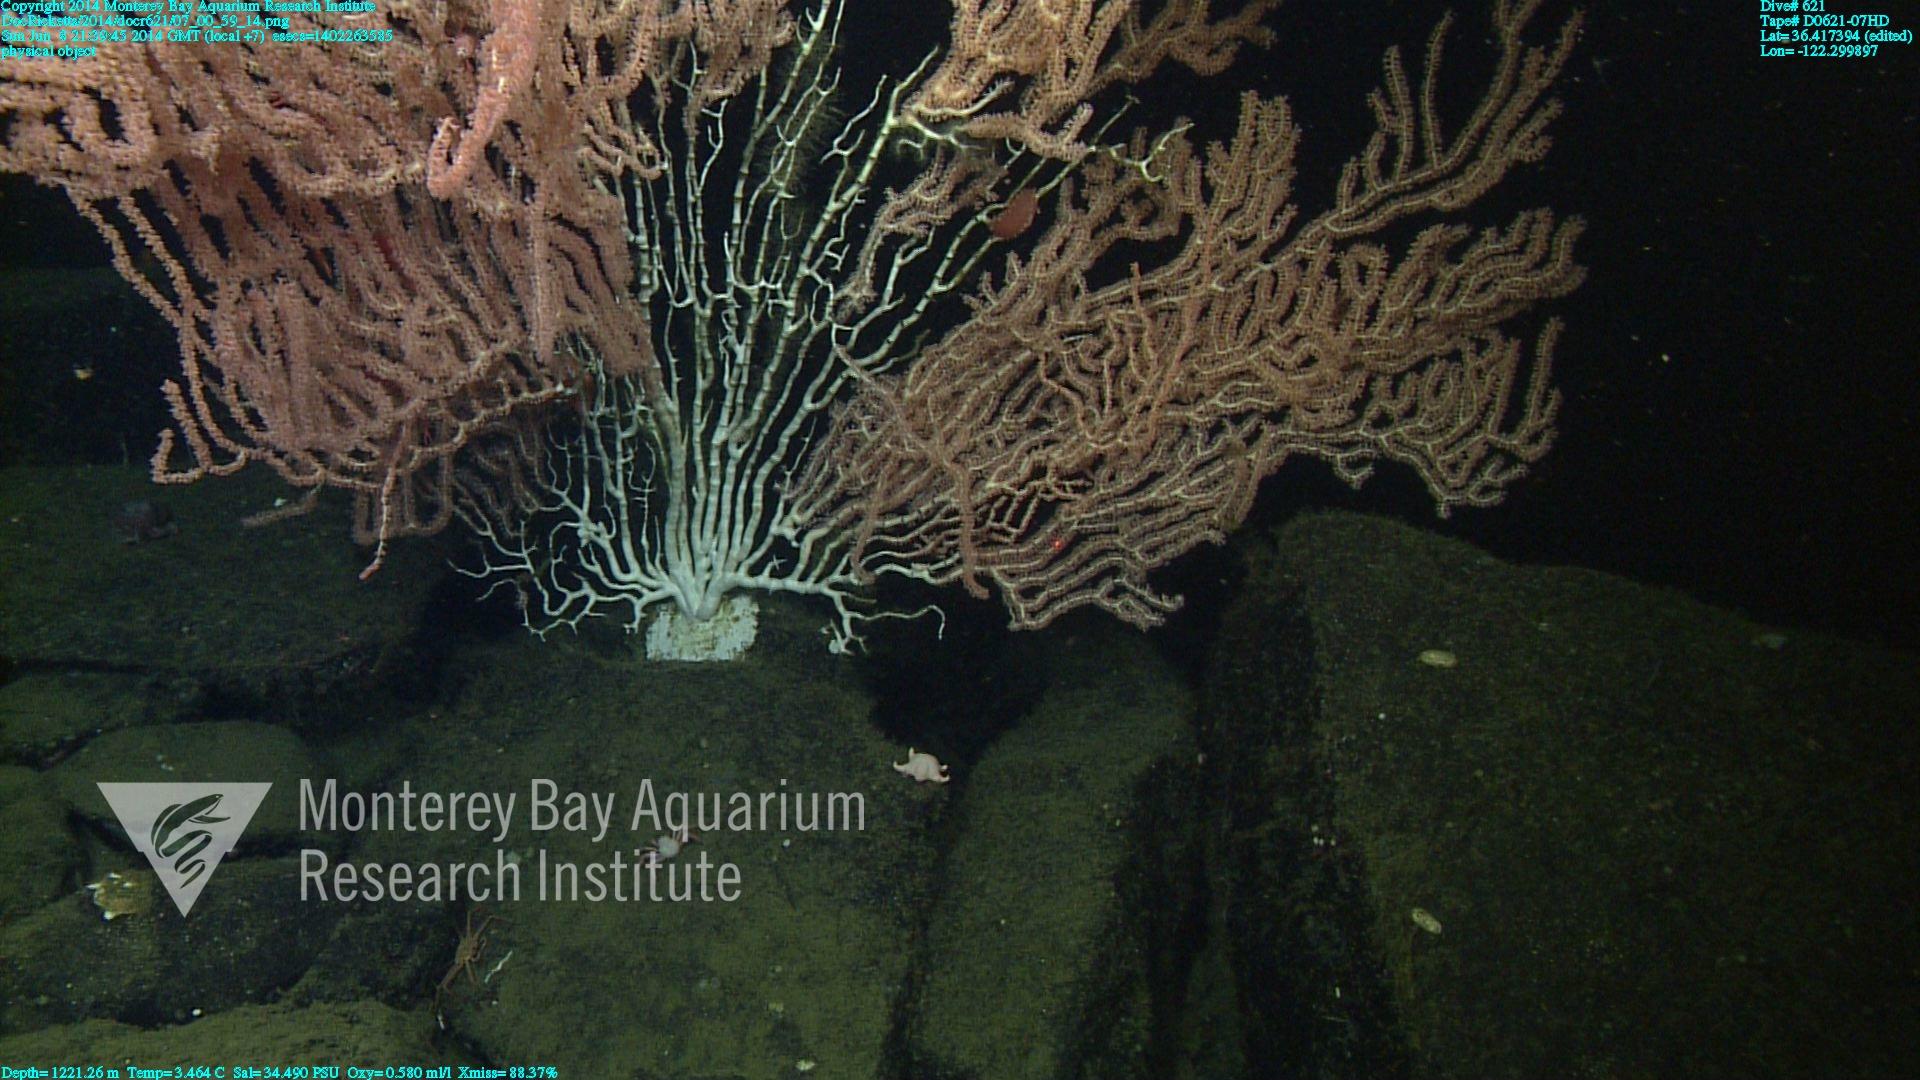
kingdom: Animalia
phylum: Cnidaria
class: Anthozoa
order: Scleralcyonacea
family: Keratoisididae
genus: Keratoisis
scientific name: Keratoisis
